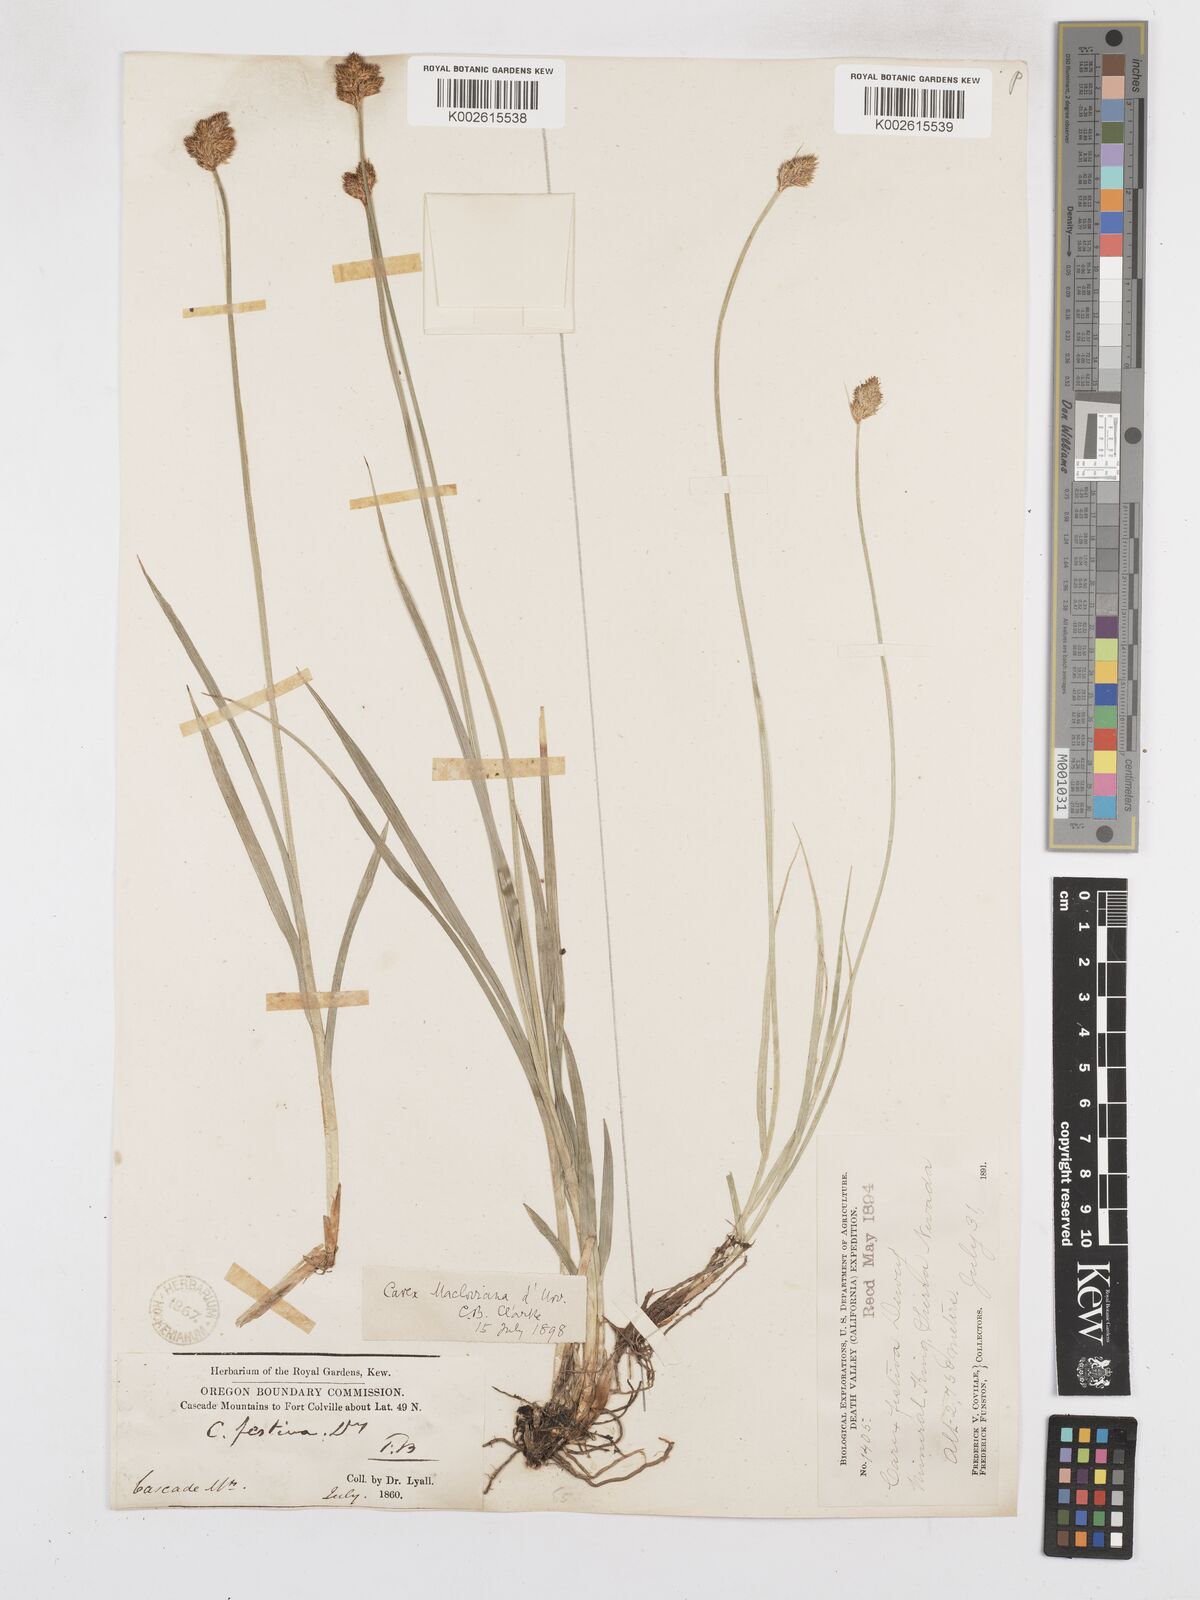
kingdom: Plantae
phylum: Tracheophyta
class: Liliopsida
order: Poales
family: Cyperaceae
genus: Carex
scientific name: Carex subfusca
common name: Brown sedge
